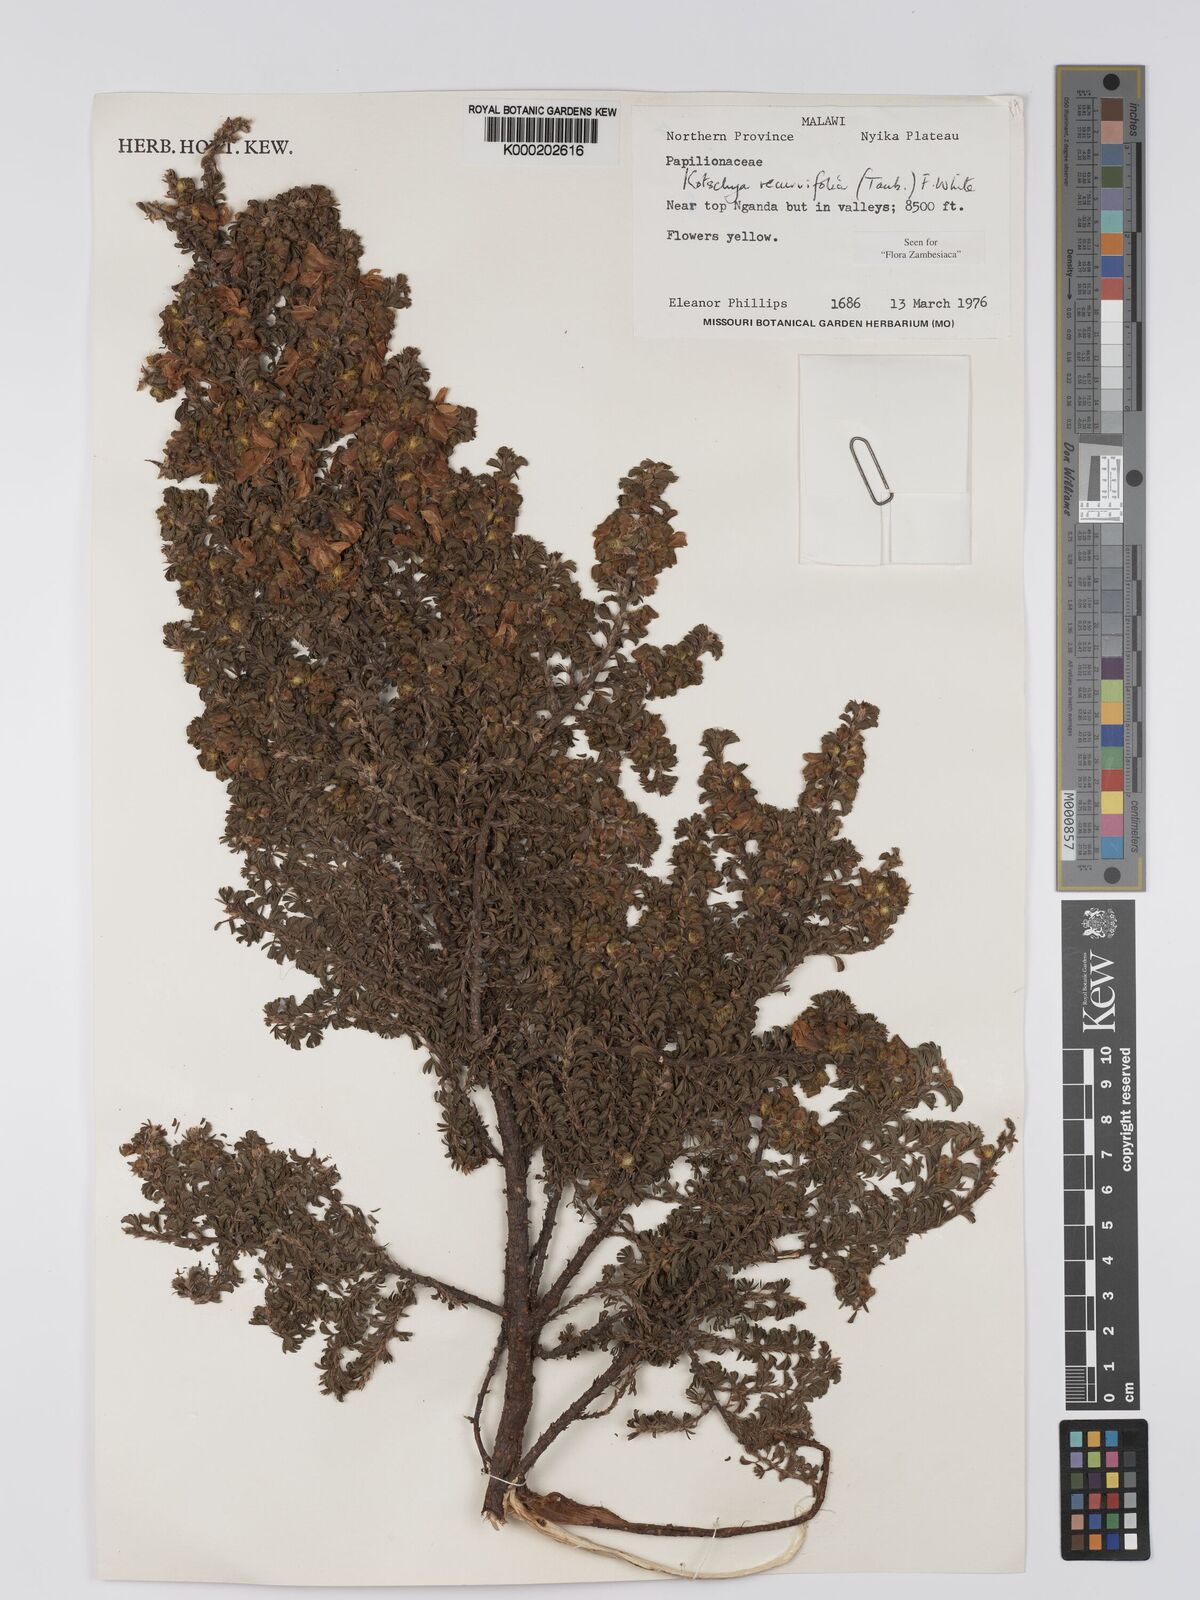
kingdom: Plantae
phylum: Tracheophyta
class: Magnoliopsida
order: Fabales
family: Fabaceae
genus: Kotschya
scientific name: Kotschya recurvifolia
